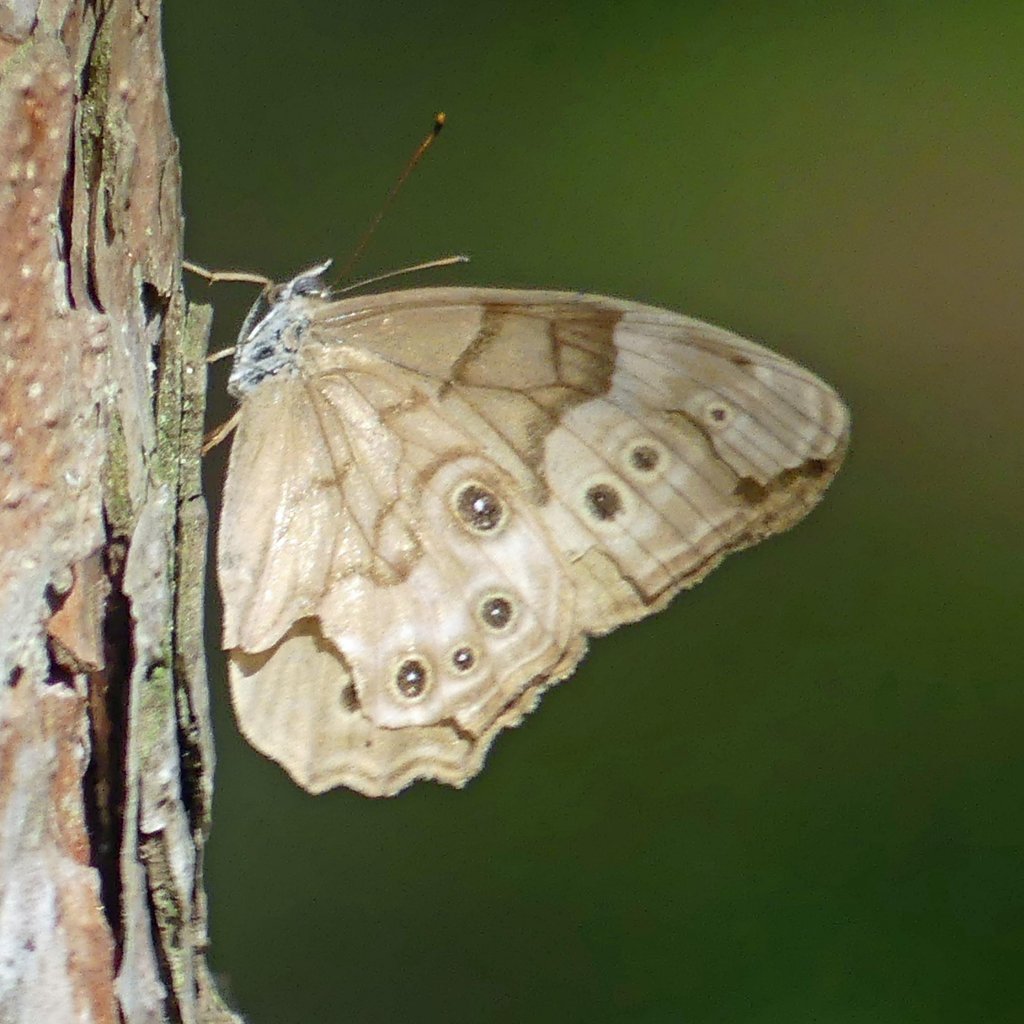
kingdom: Animalia
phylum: Arthropoda
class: Insecta
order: Lepidoptera
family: Nymphalidae
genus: Lethe
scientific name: Lethe anthedon
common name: Northern Pearly-Eye
